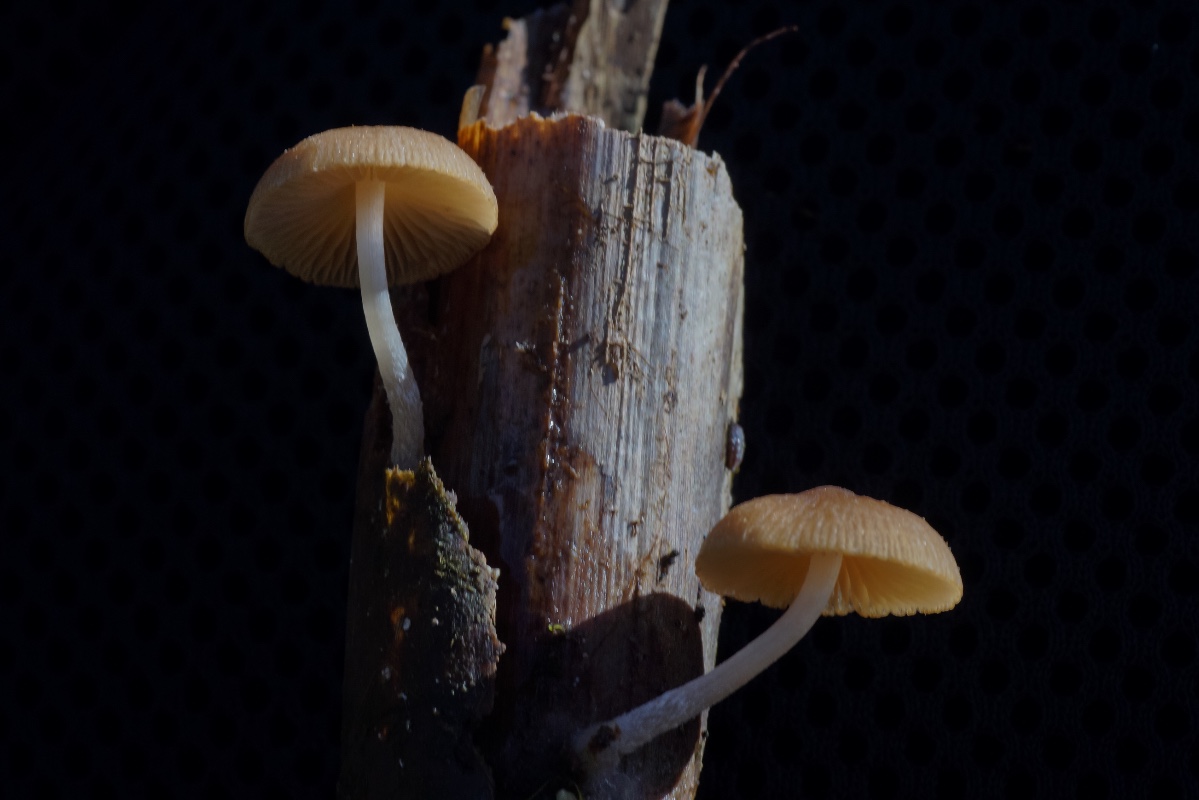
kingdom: Fungi
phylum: Basidiomycota
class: Agaricomycetes
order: Agaricales
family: Psathyrellaceae
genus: Candolleomyces
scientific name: Candolleomyces typhae
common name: dunhammer-mørkhat
